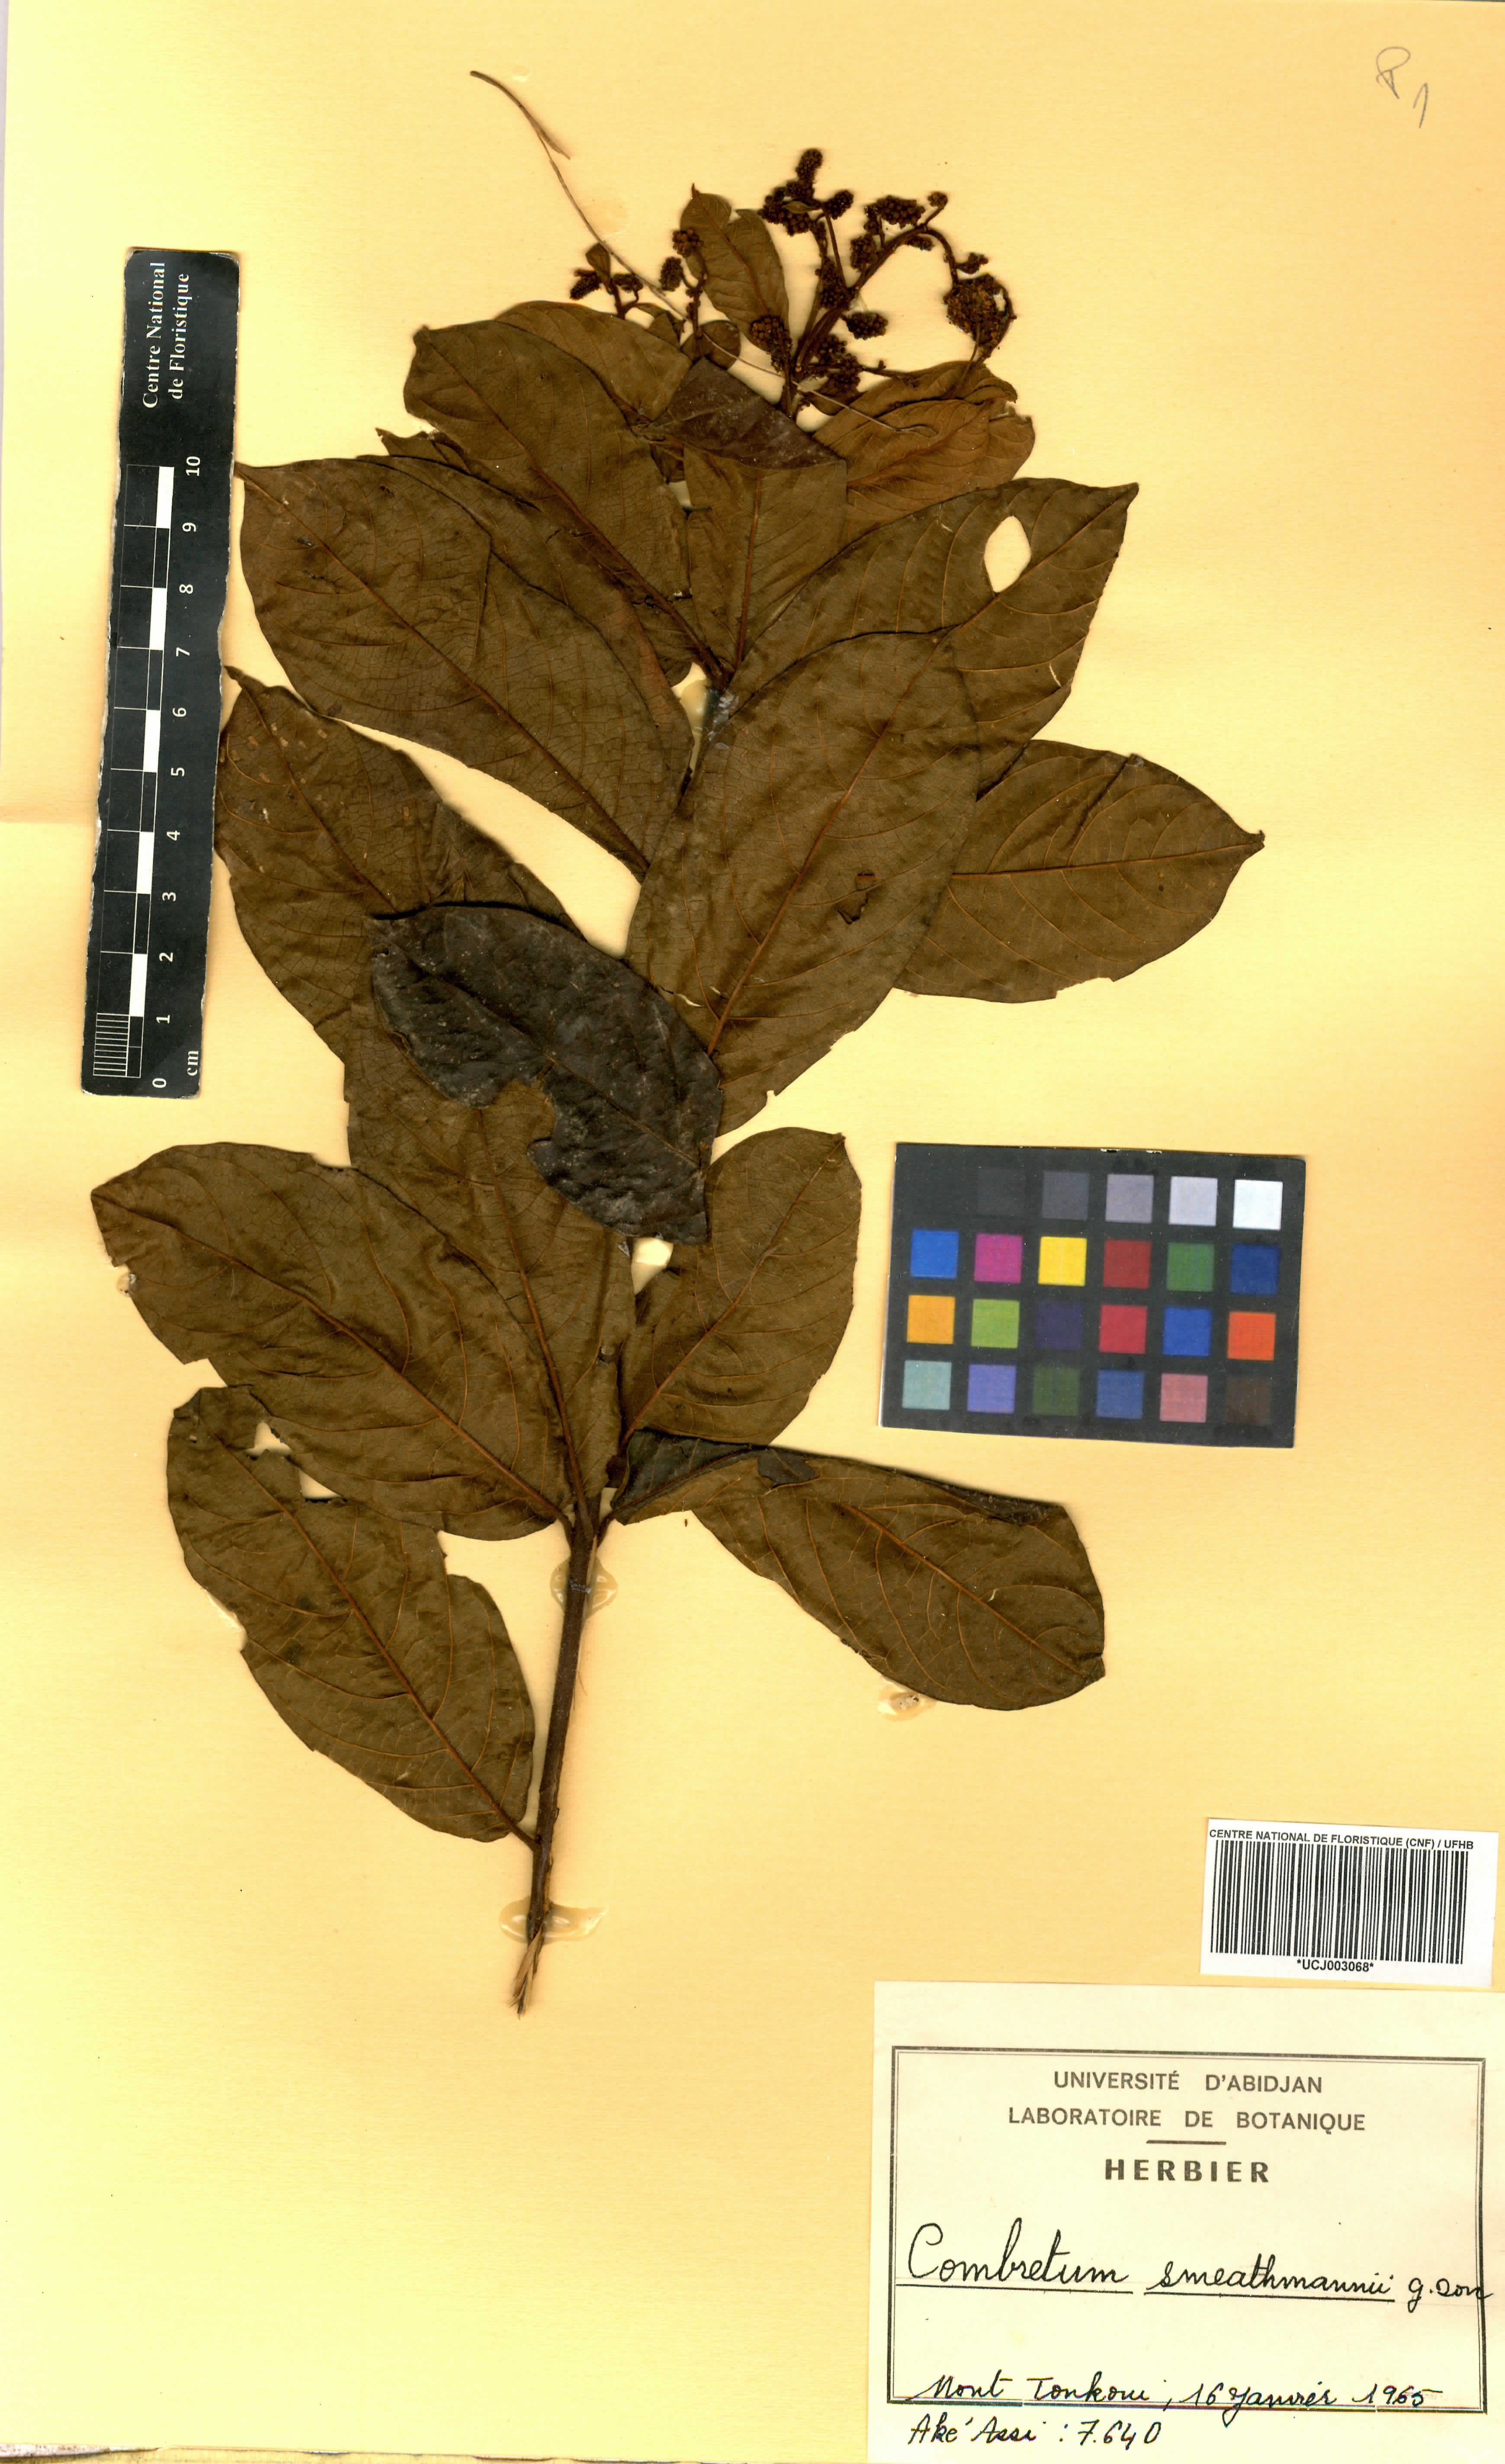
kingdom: Plantae
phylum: Tracheophyta
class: Magnoliopsida
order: Myrtales
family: Combretaceae
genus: Combretum
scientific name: Combretum mucronatum
